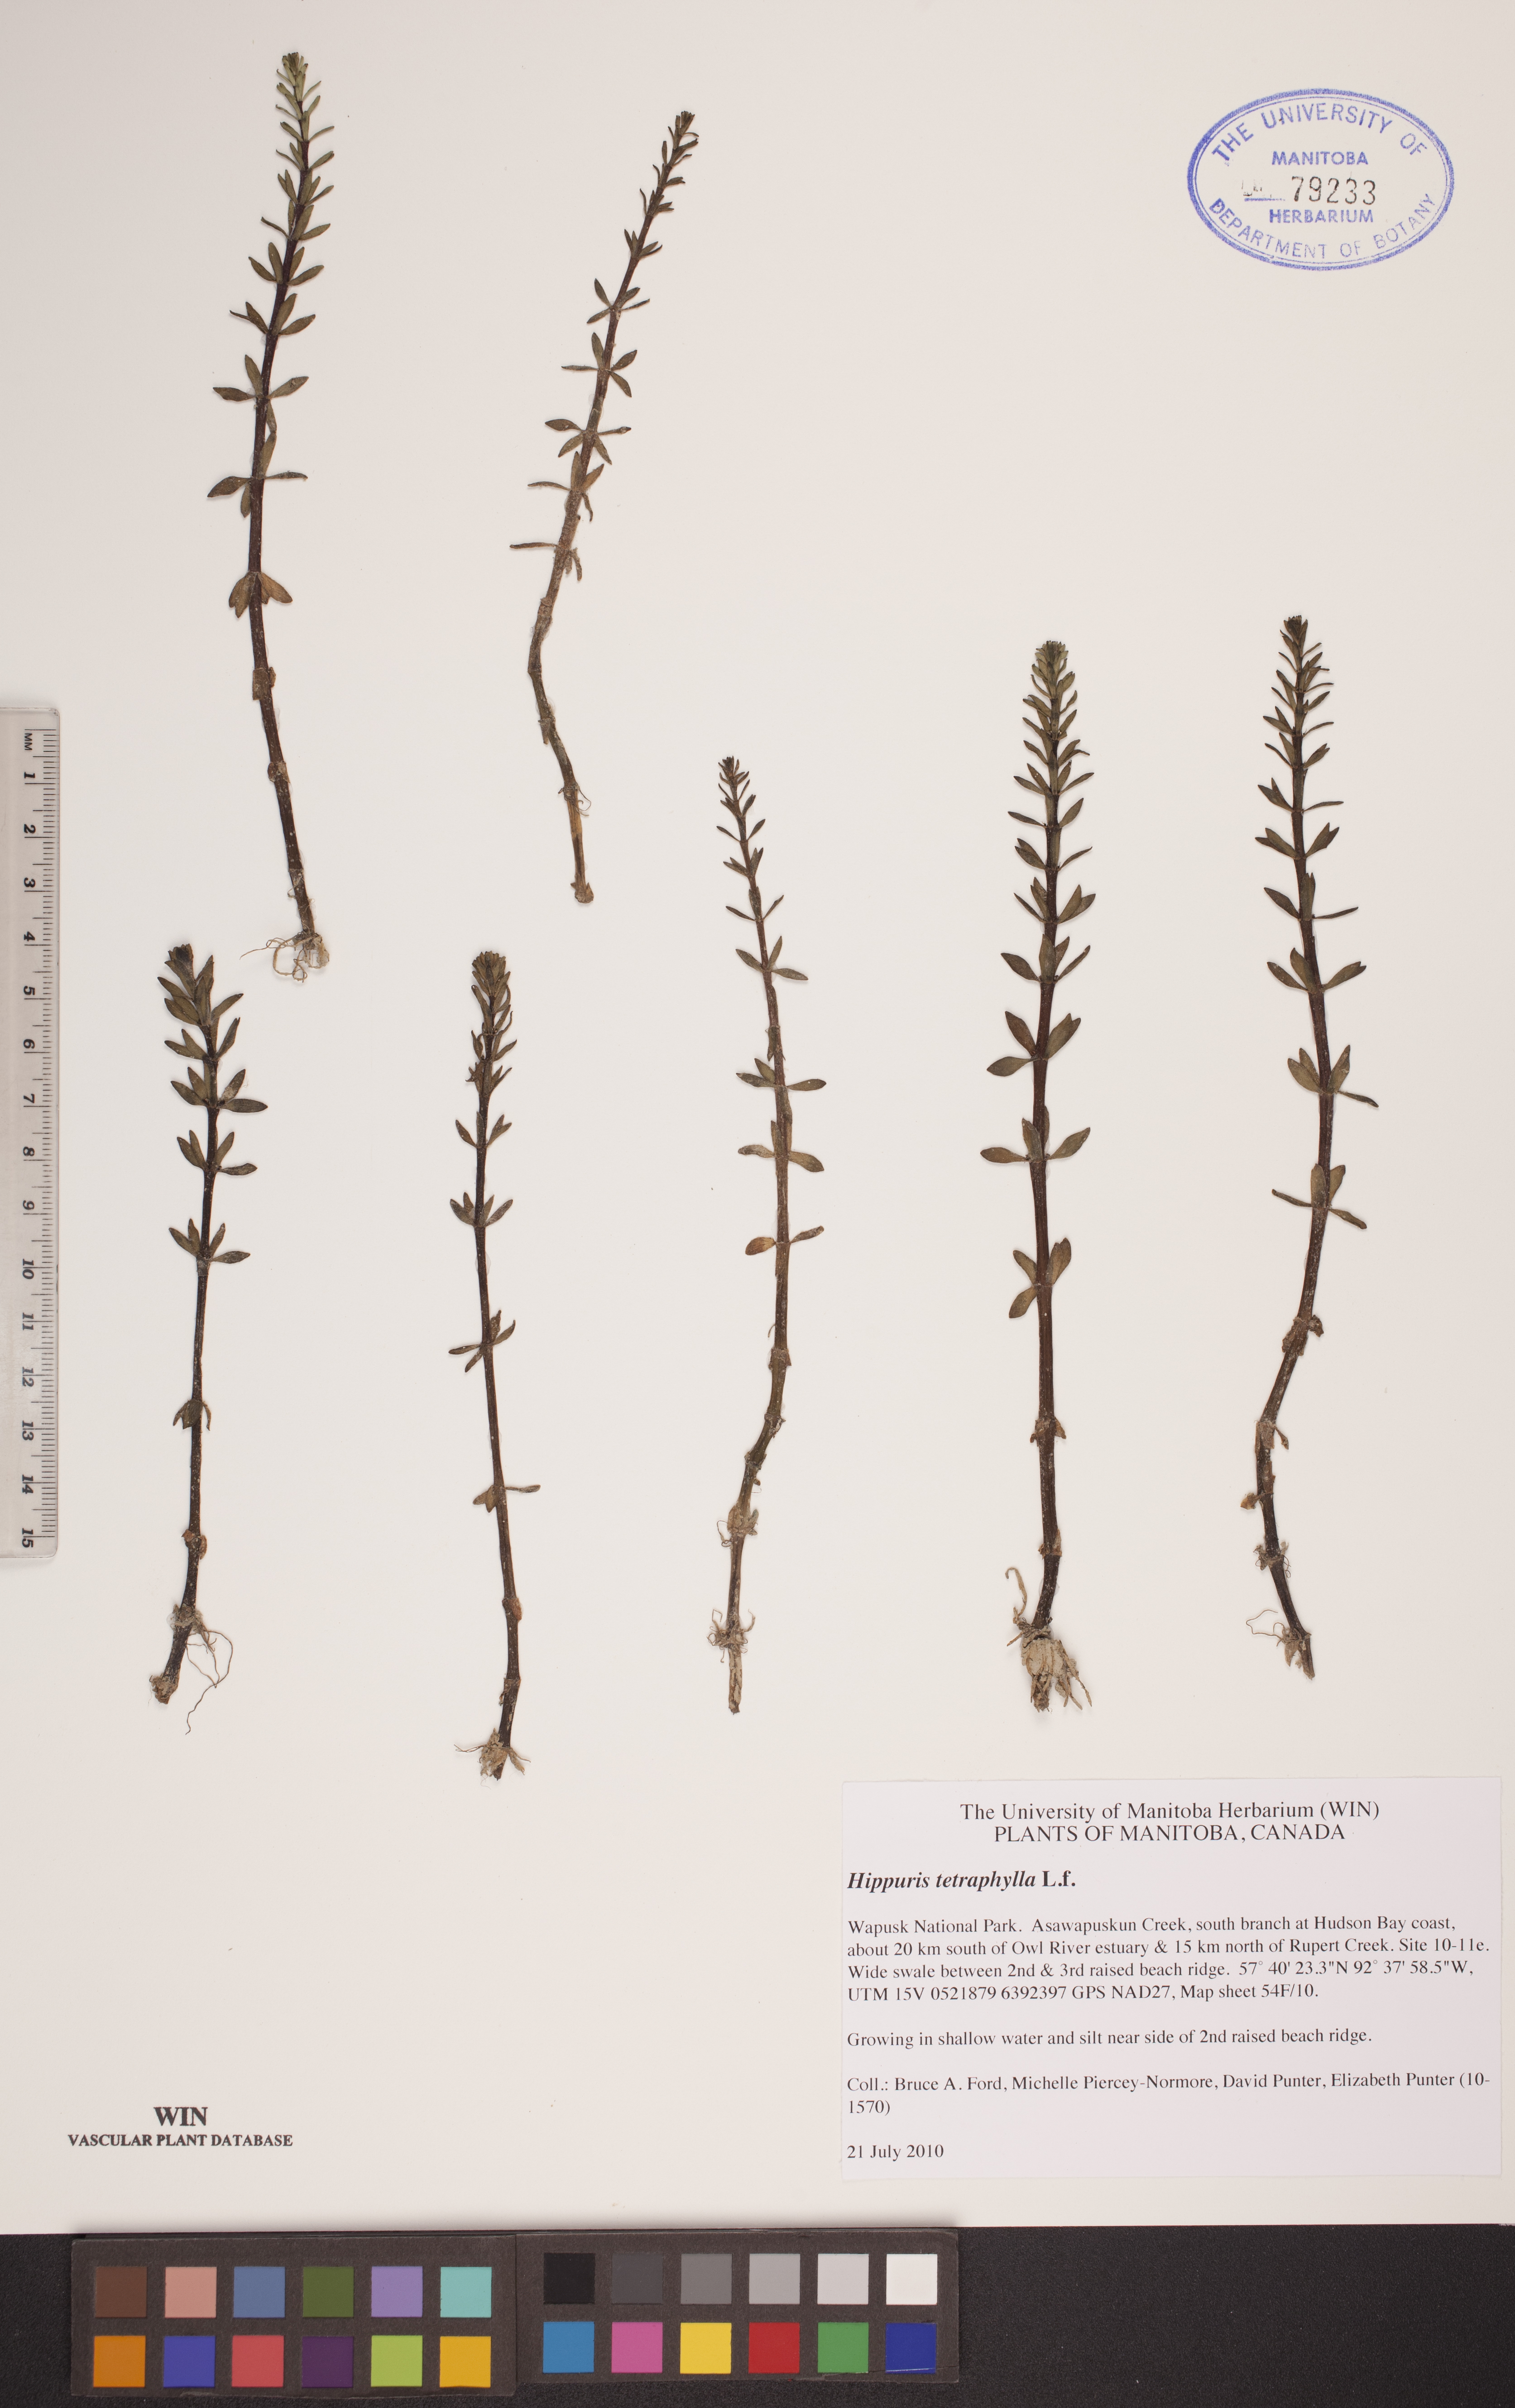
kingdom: Plantae
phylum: Tracheophyta
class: Magnoliopsida
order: Lamiales
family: Plantaginaceae
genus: Hippuris
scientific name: Hippuris tetraphylla
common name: Four-leaved mare's-tail
